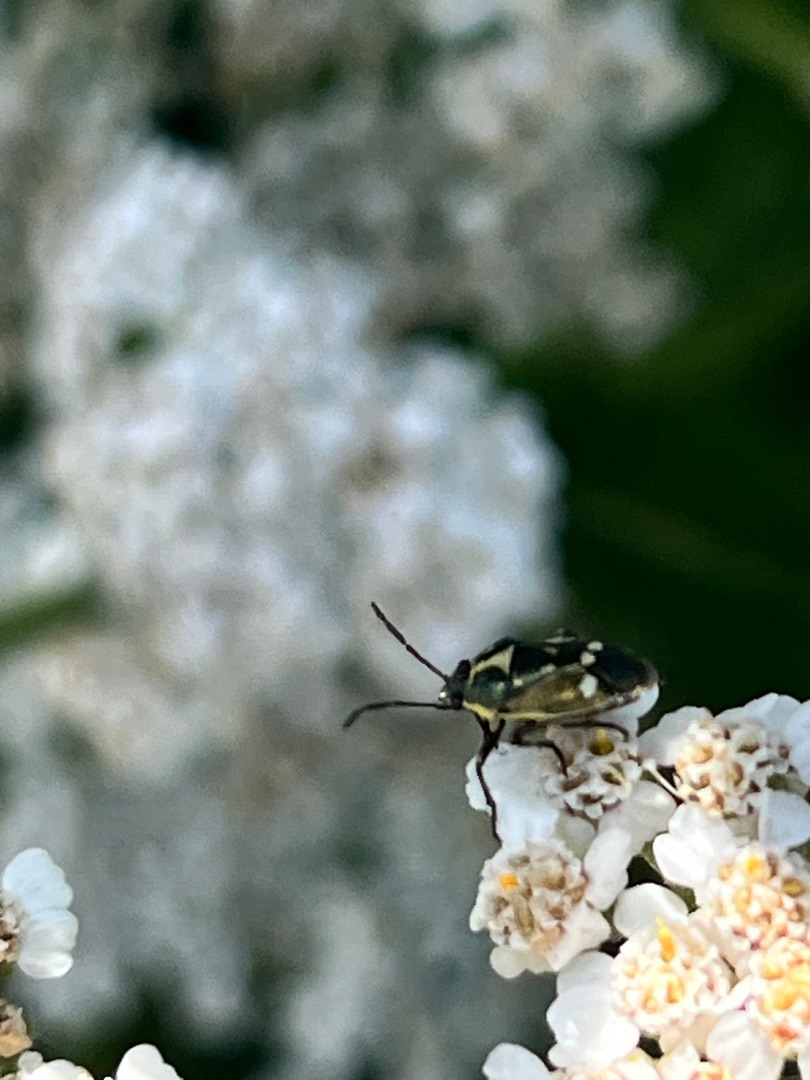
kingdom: Animalia
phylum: Arthropoda
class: Insecta
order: Hemiptera
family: Pentatomidae
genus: Eurydema
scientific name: Eurydema oleracea
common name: Almindelig kåltæge
